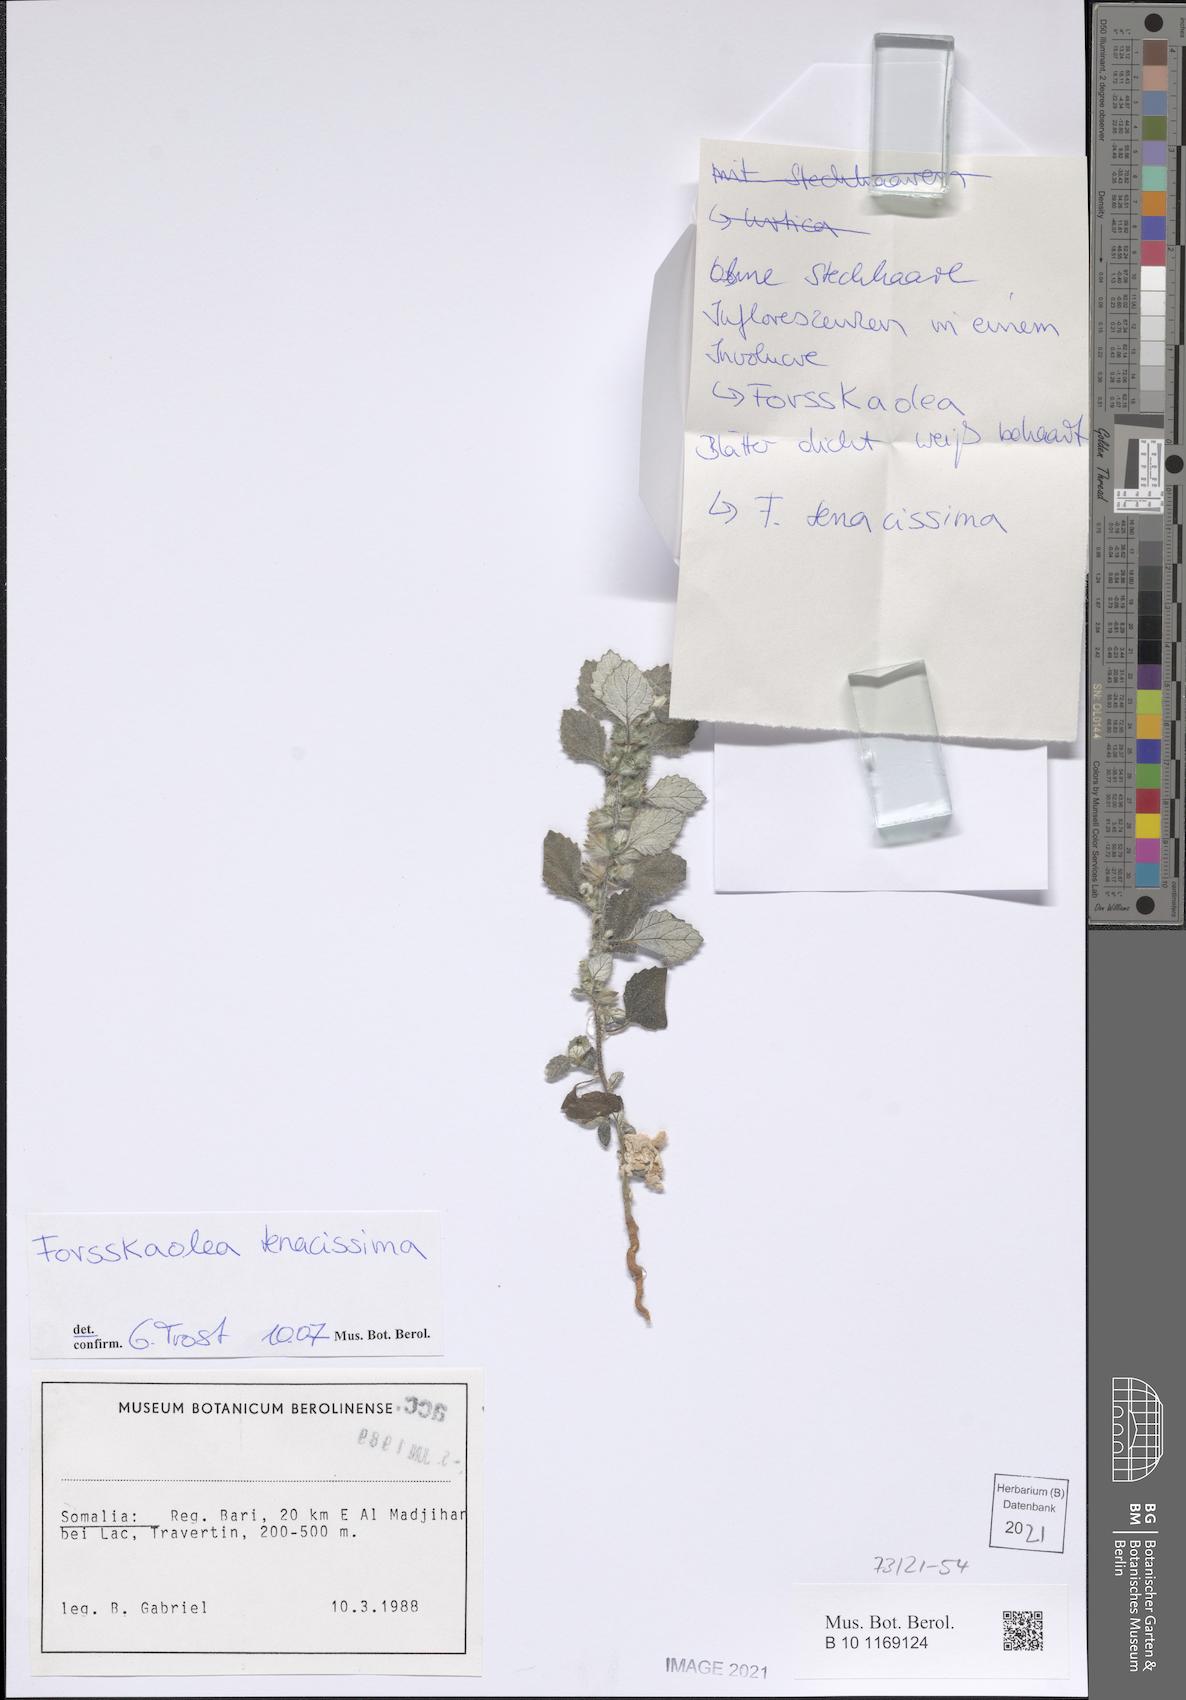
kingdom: Plantae
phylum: Tracheophyta
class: Magnoliopsida
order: Rosales
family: Urticaceae
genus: Forsskaolea
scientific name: Forsskaolea tenacissima
